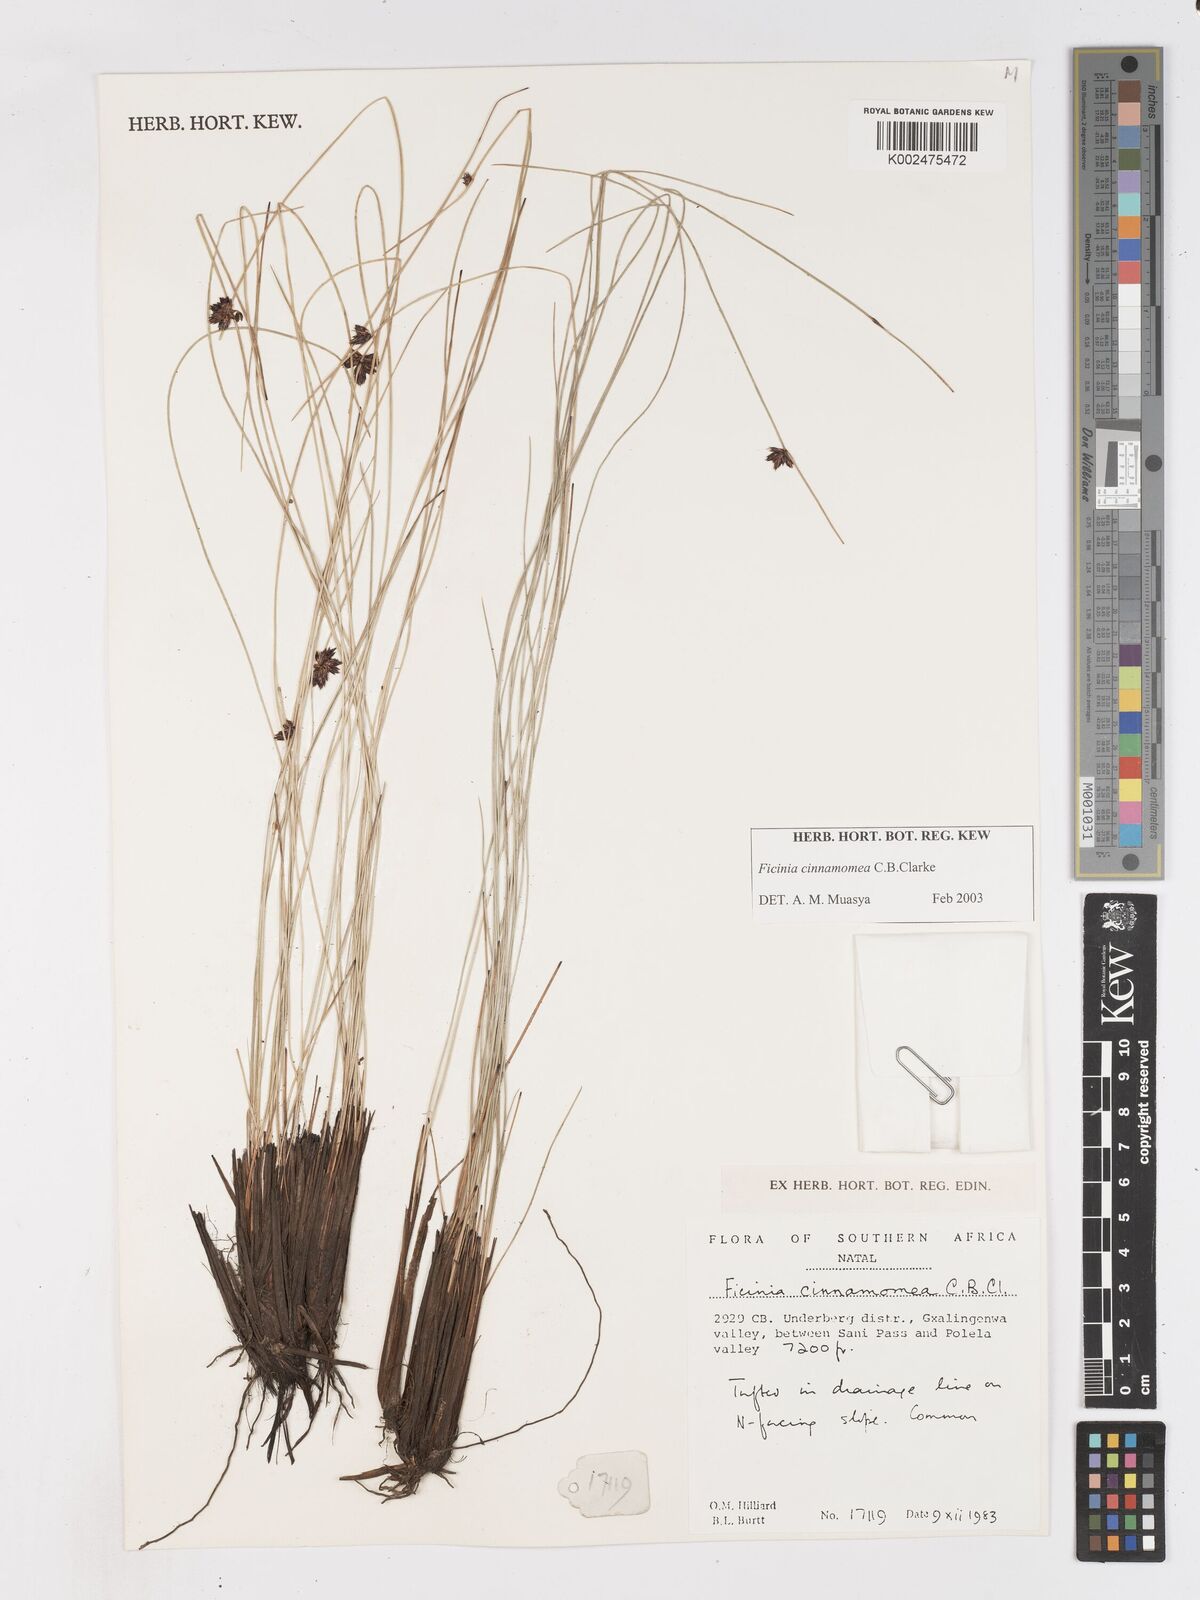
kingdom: Plantae
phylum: Tracheophyta
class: Liliopsida
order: Poales
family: Cyperaceae
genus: Ficinia
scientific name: Ficinia cinnamomea
